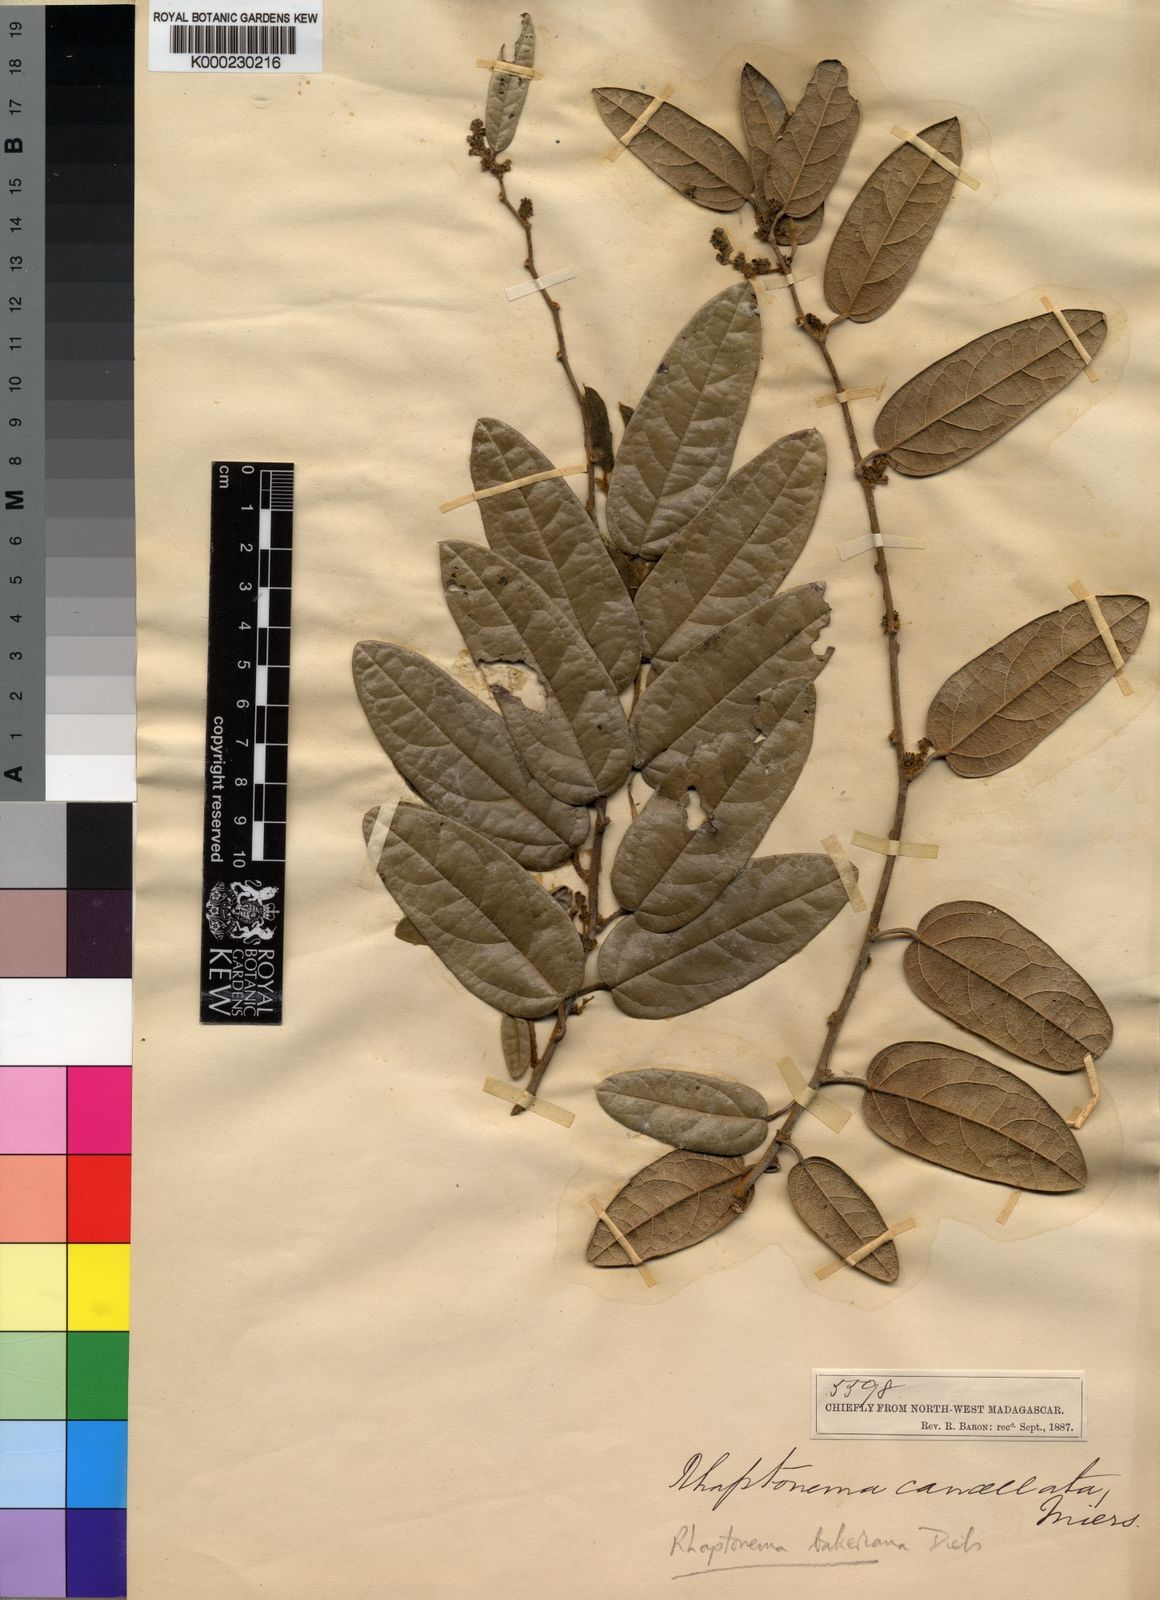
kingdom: Plantae
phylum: Tracheophyta
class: Magnoliopsida
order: Ranunculales
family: Menispermaceae
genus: Rhaptonema
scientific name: Rhaptonema bakeriana
